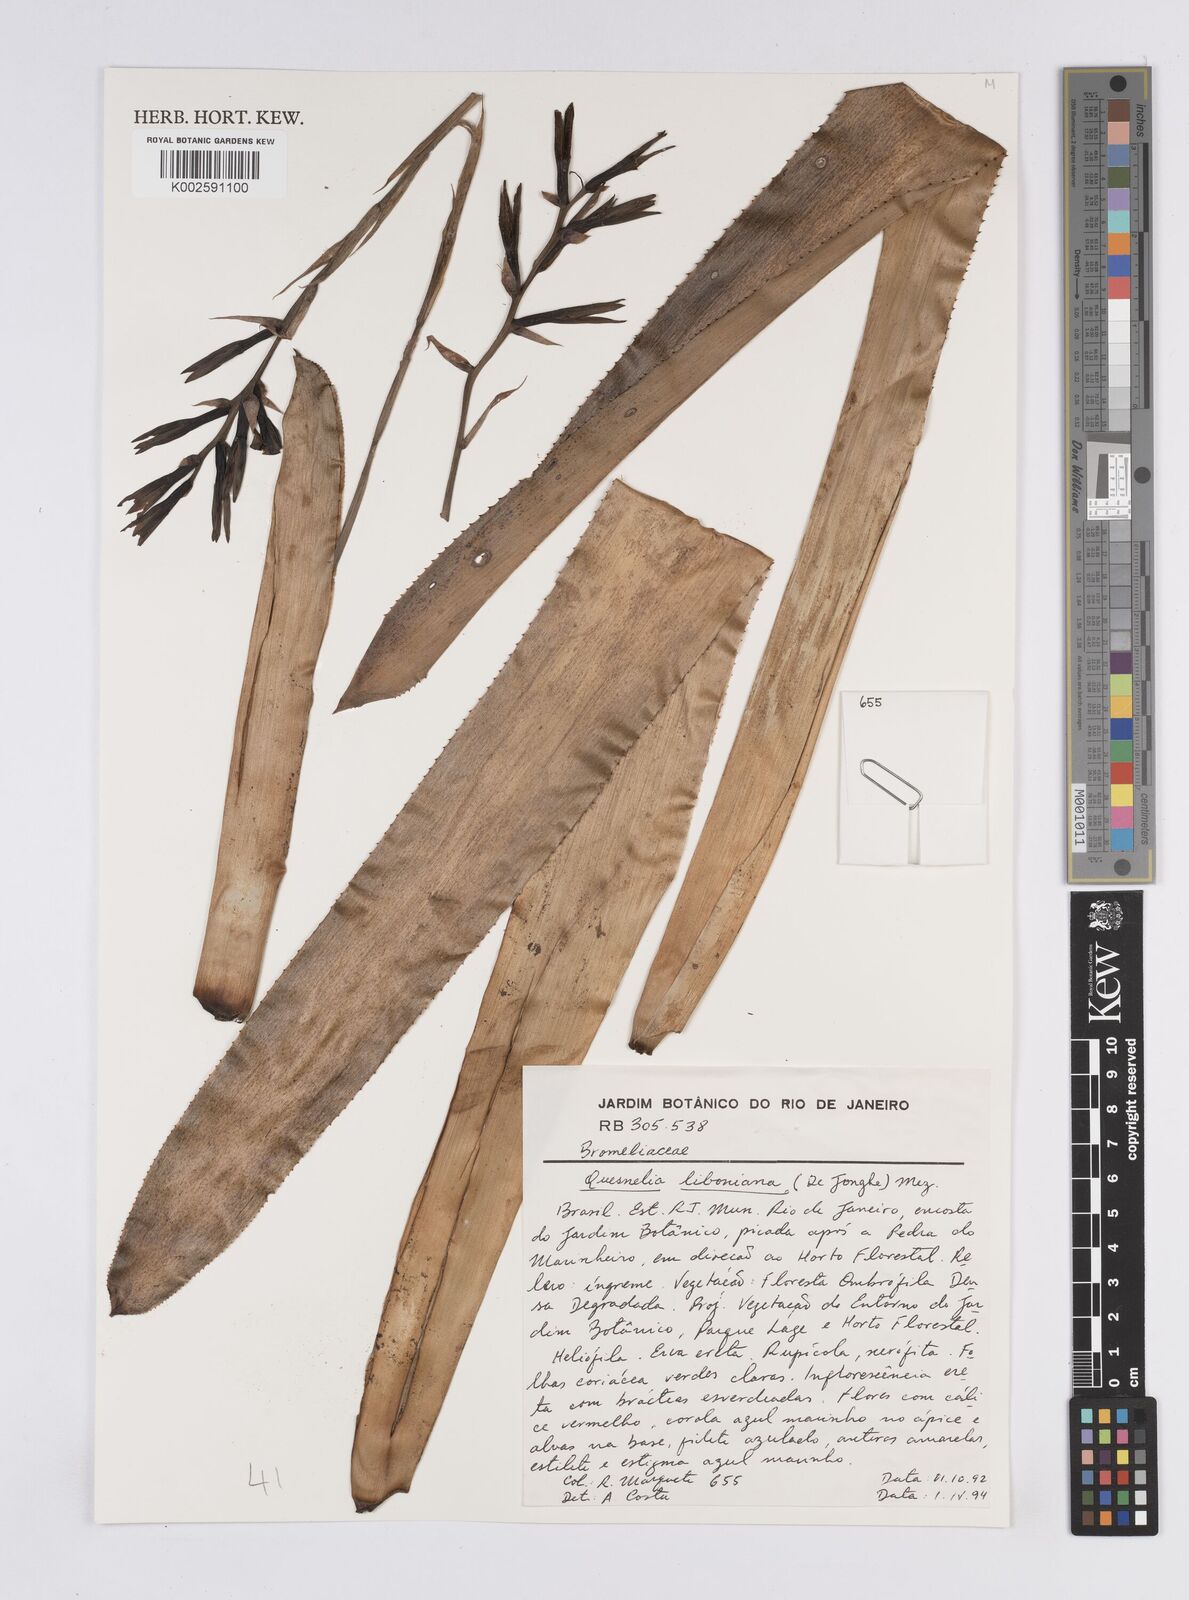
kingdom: Plantae
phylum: Tracheophyta
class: Liliopsida
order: Poales
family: Bromeliaceae
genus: Quesnelia
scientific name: Quesnelia liboniana
